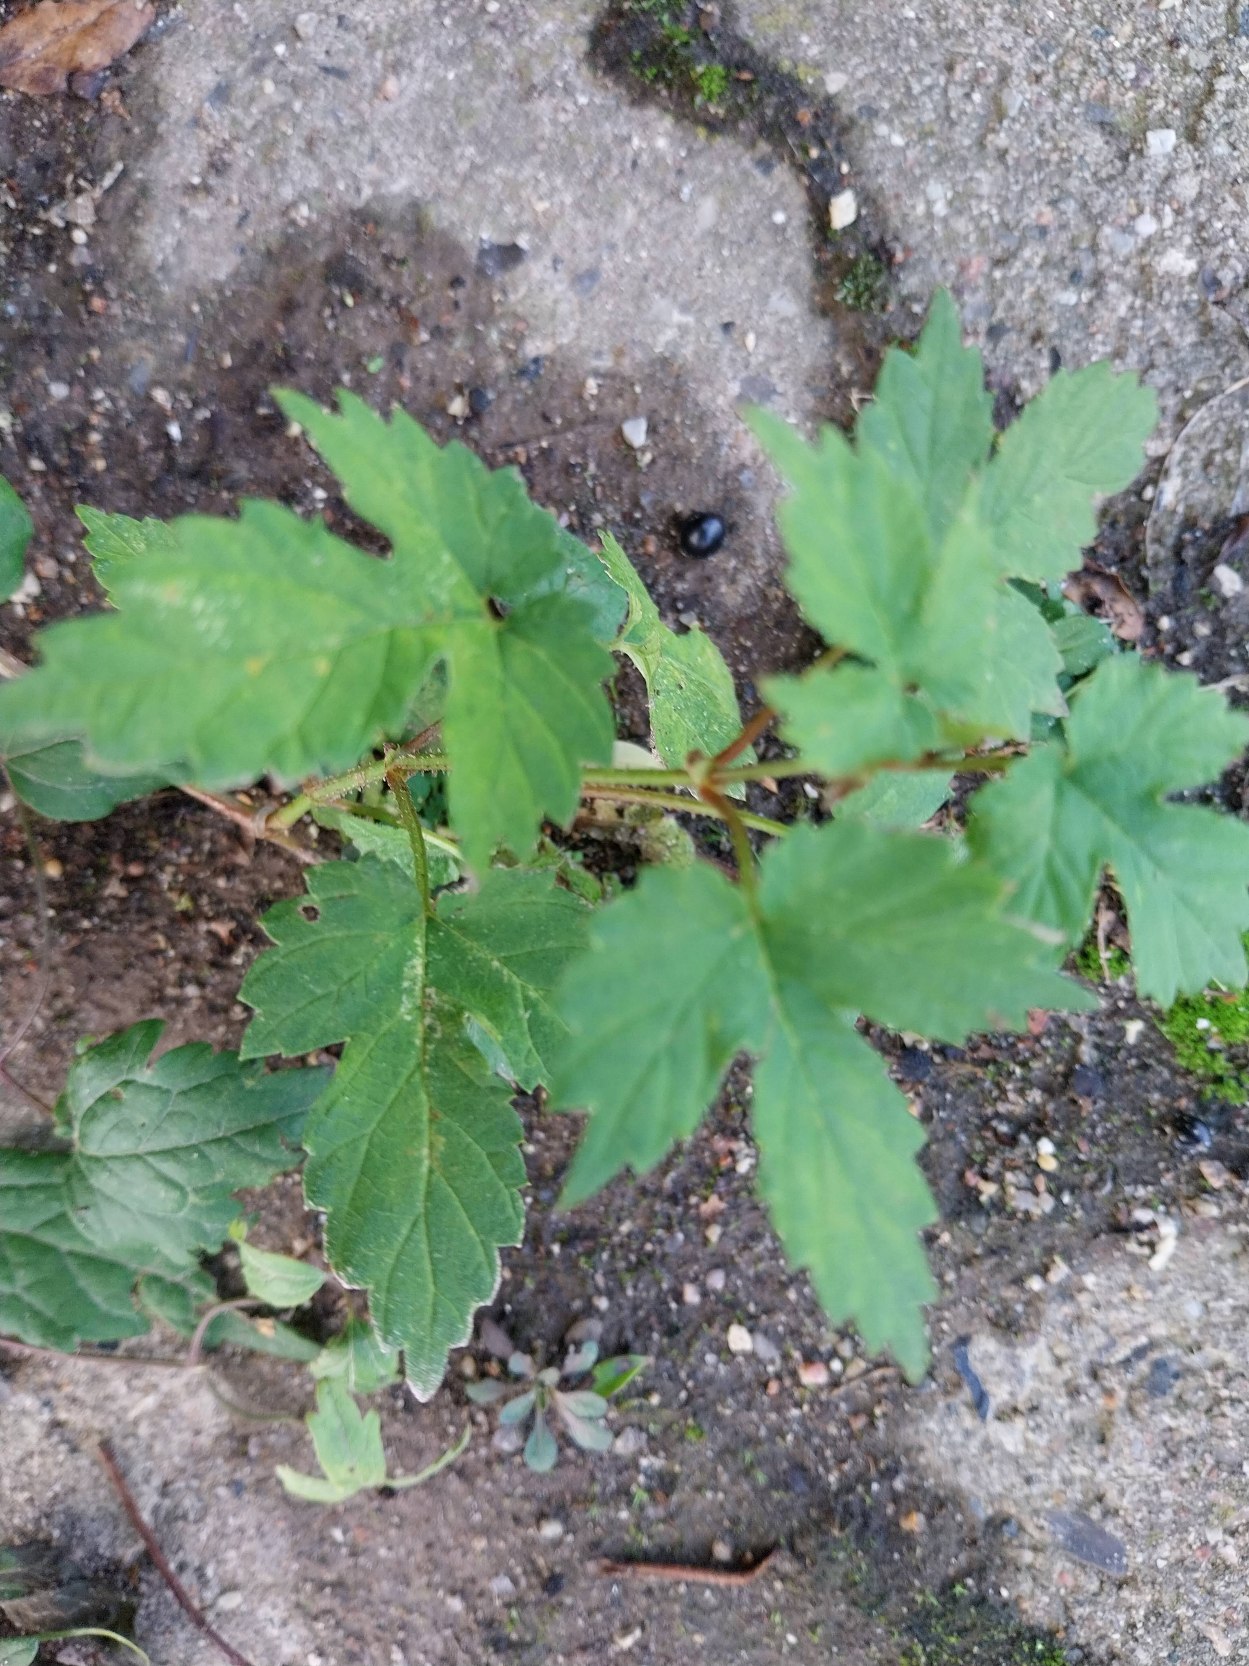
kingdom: Plantae
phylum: Tracheophyta
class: Magnoliopsida
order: Rosales
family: Cannabaceae
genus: Humulus
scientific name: Humulus lupulus
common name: Humle
